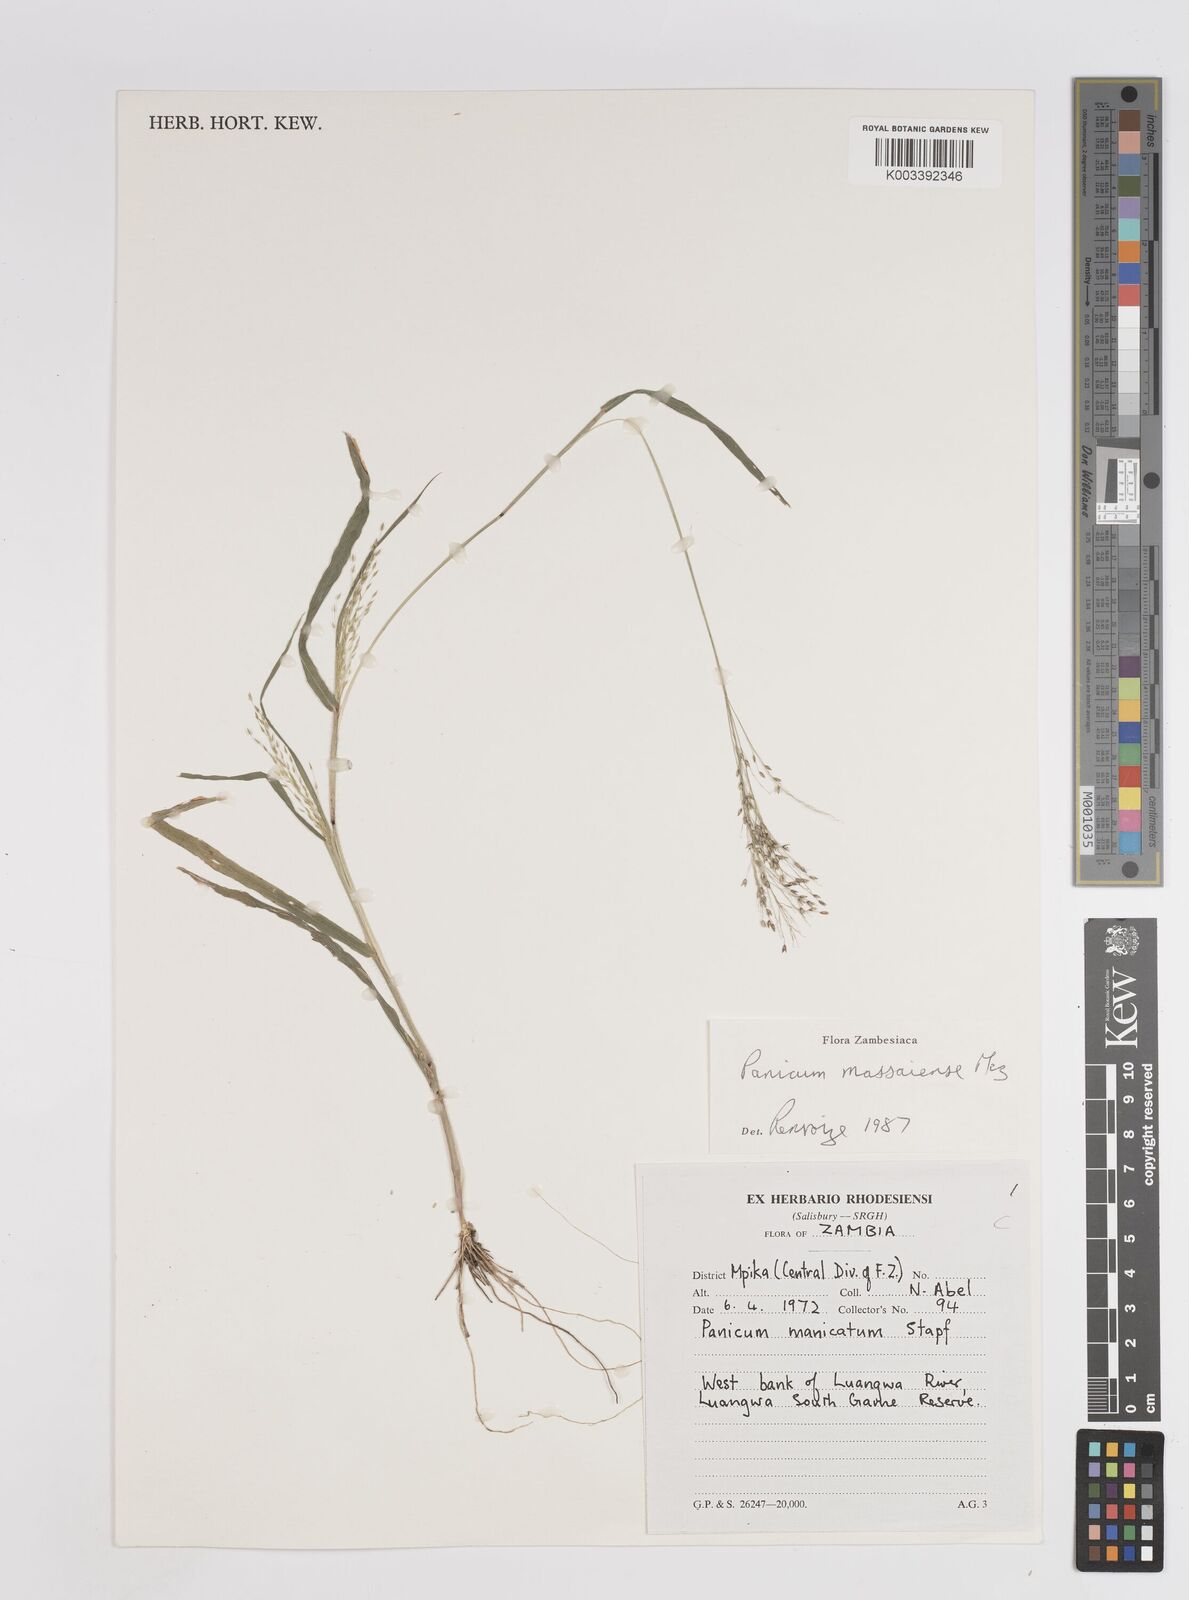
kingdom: Plantae
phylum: Tracheophyta
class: Liliopsida
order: Poales
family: Poaceae
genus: Panicum
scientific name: Panicum massaiense
